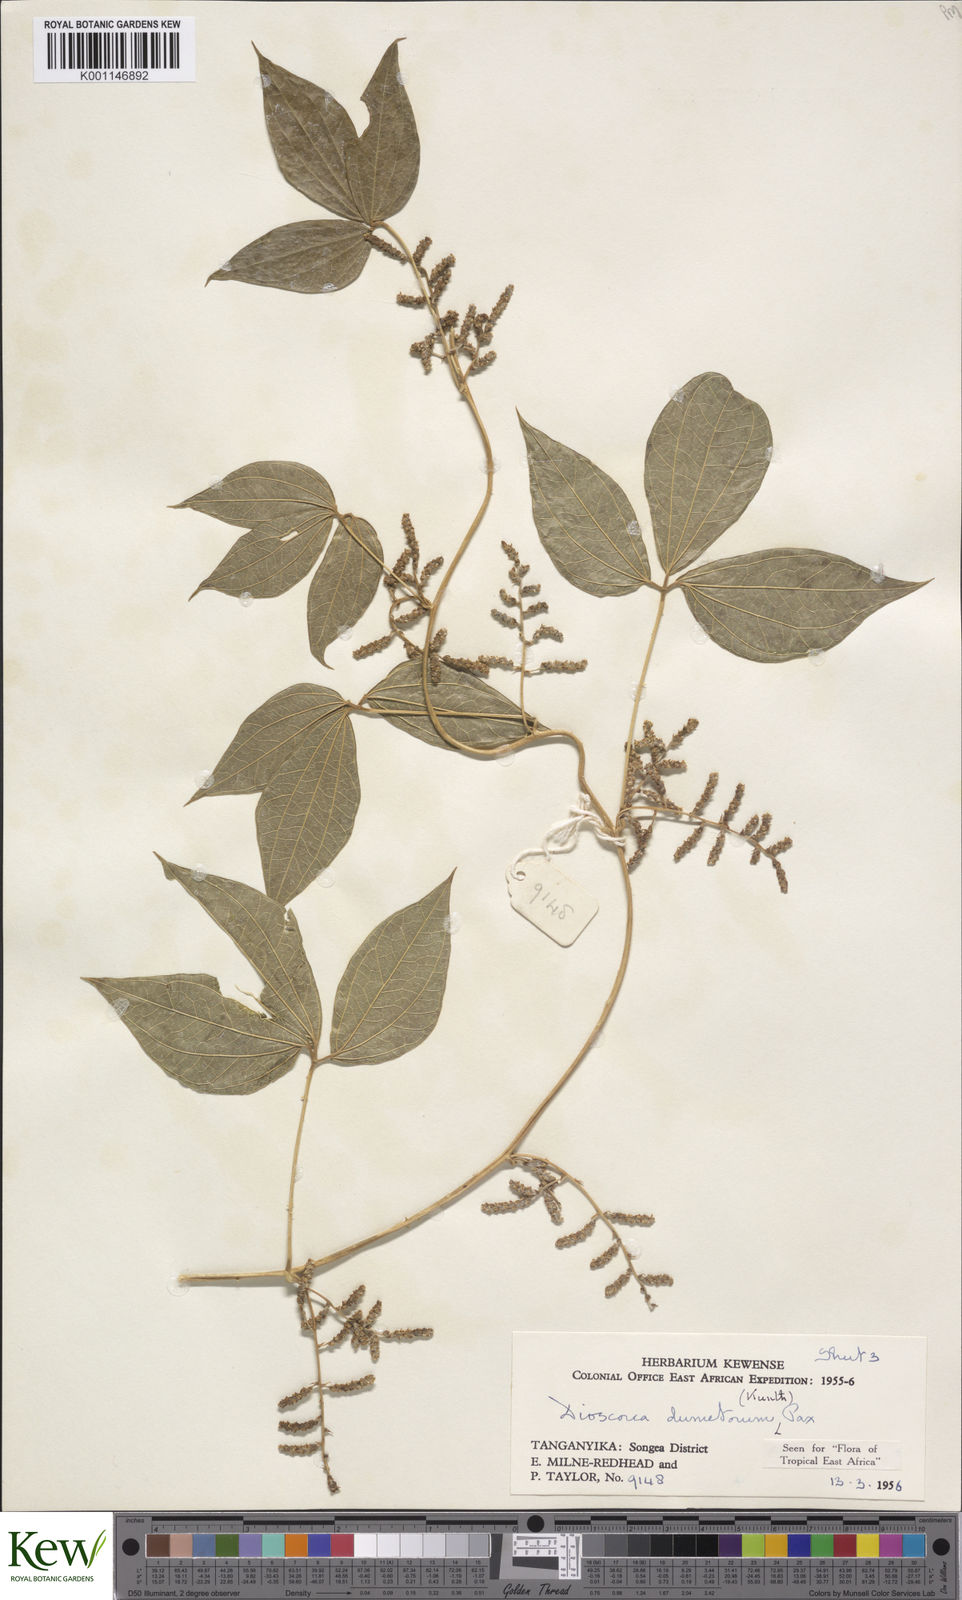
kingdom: Plantae
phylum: Tracheophyta
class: Liliopsida
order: Dioscoreales
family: Dioscoreaceae
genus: Dioscorea
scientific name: Dioscorea dumetorum
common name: African bitter yam
